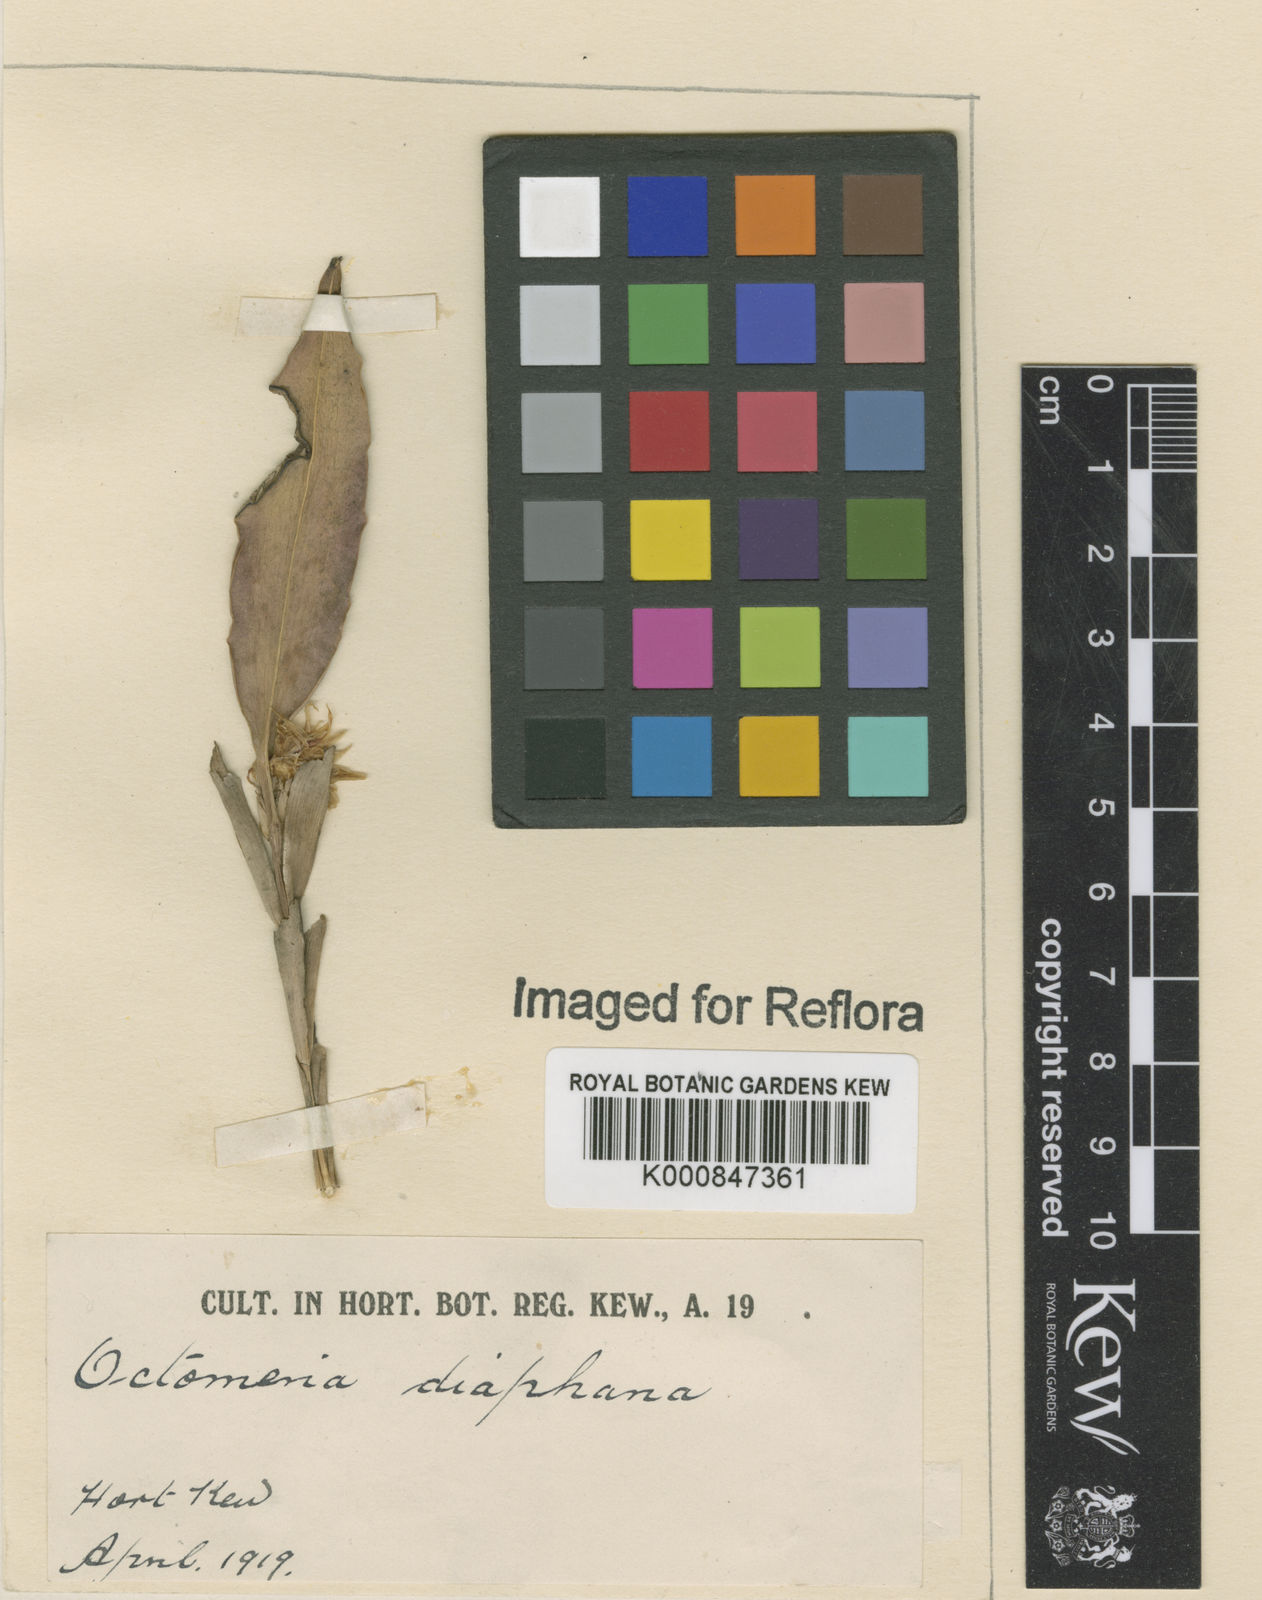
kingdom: Plantae
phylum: Tracheophyta
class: Liliopsida
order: Asparagales
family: Orchidaceae
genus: Octomeria
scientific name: Octomeria diaphana
